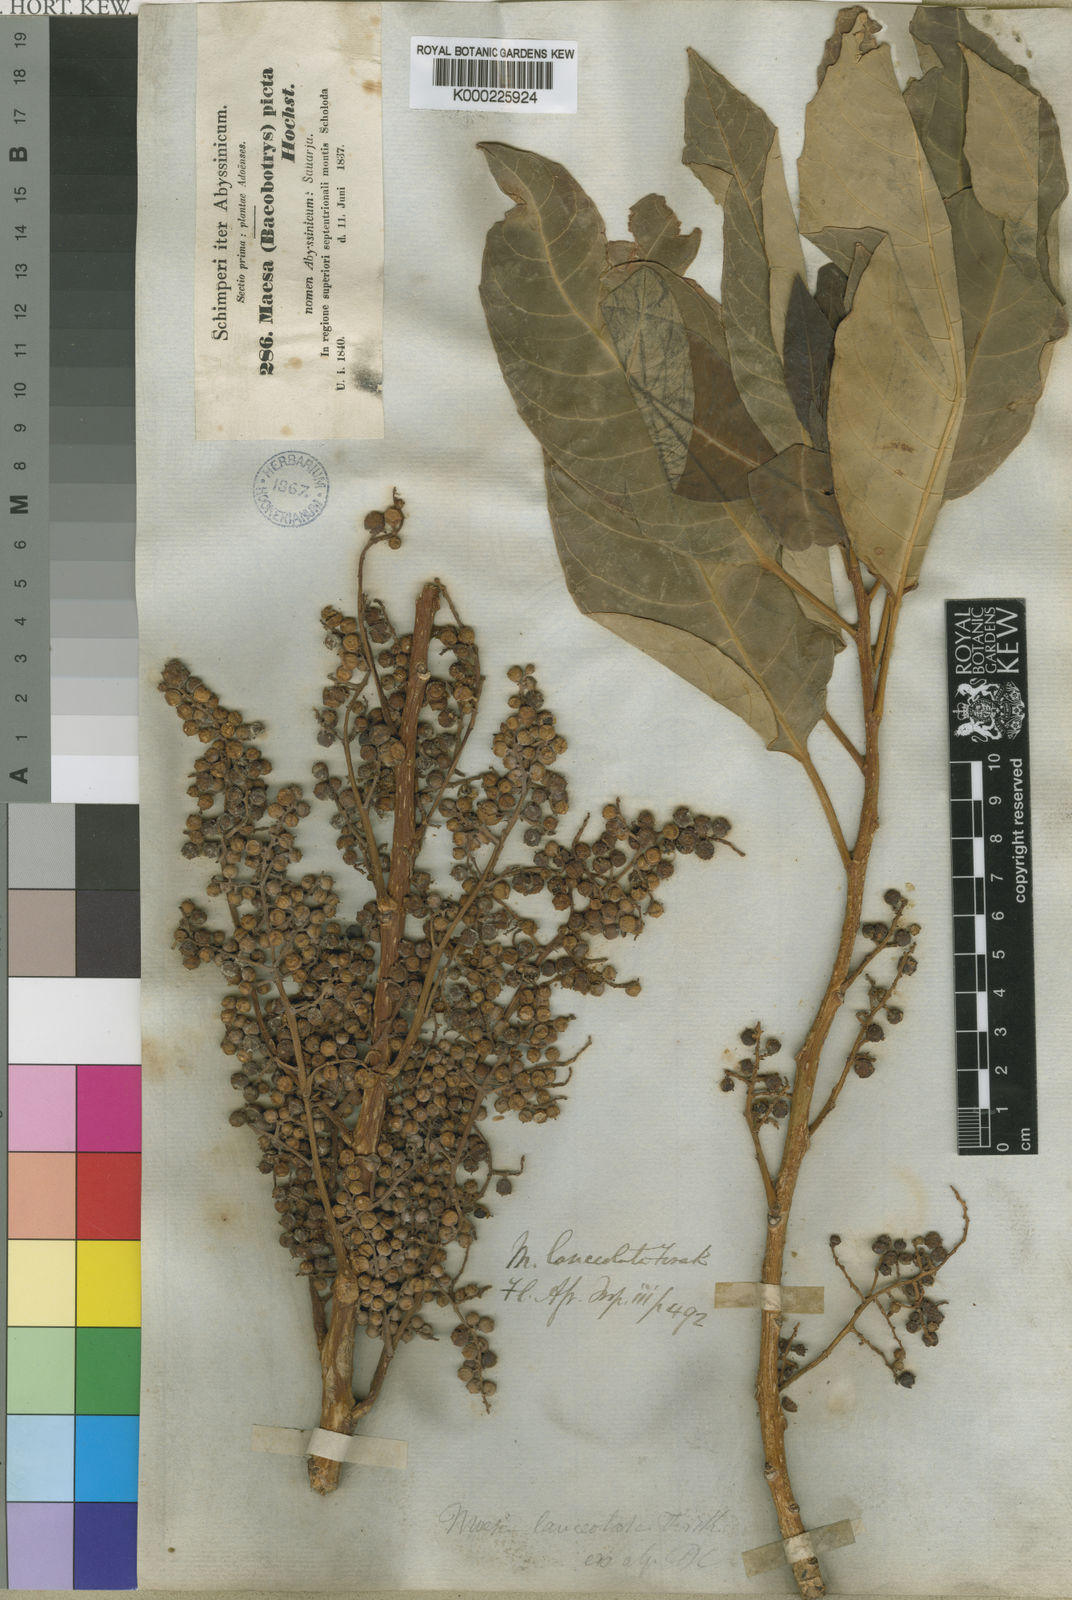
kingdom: Plantae
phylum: Tracheophyta
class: Magnoliopsida
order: Ericales
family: Primulaceae
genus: Maesa
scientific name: Maesa lanceolata
